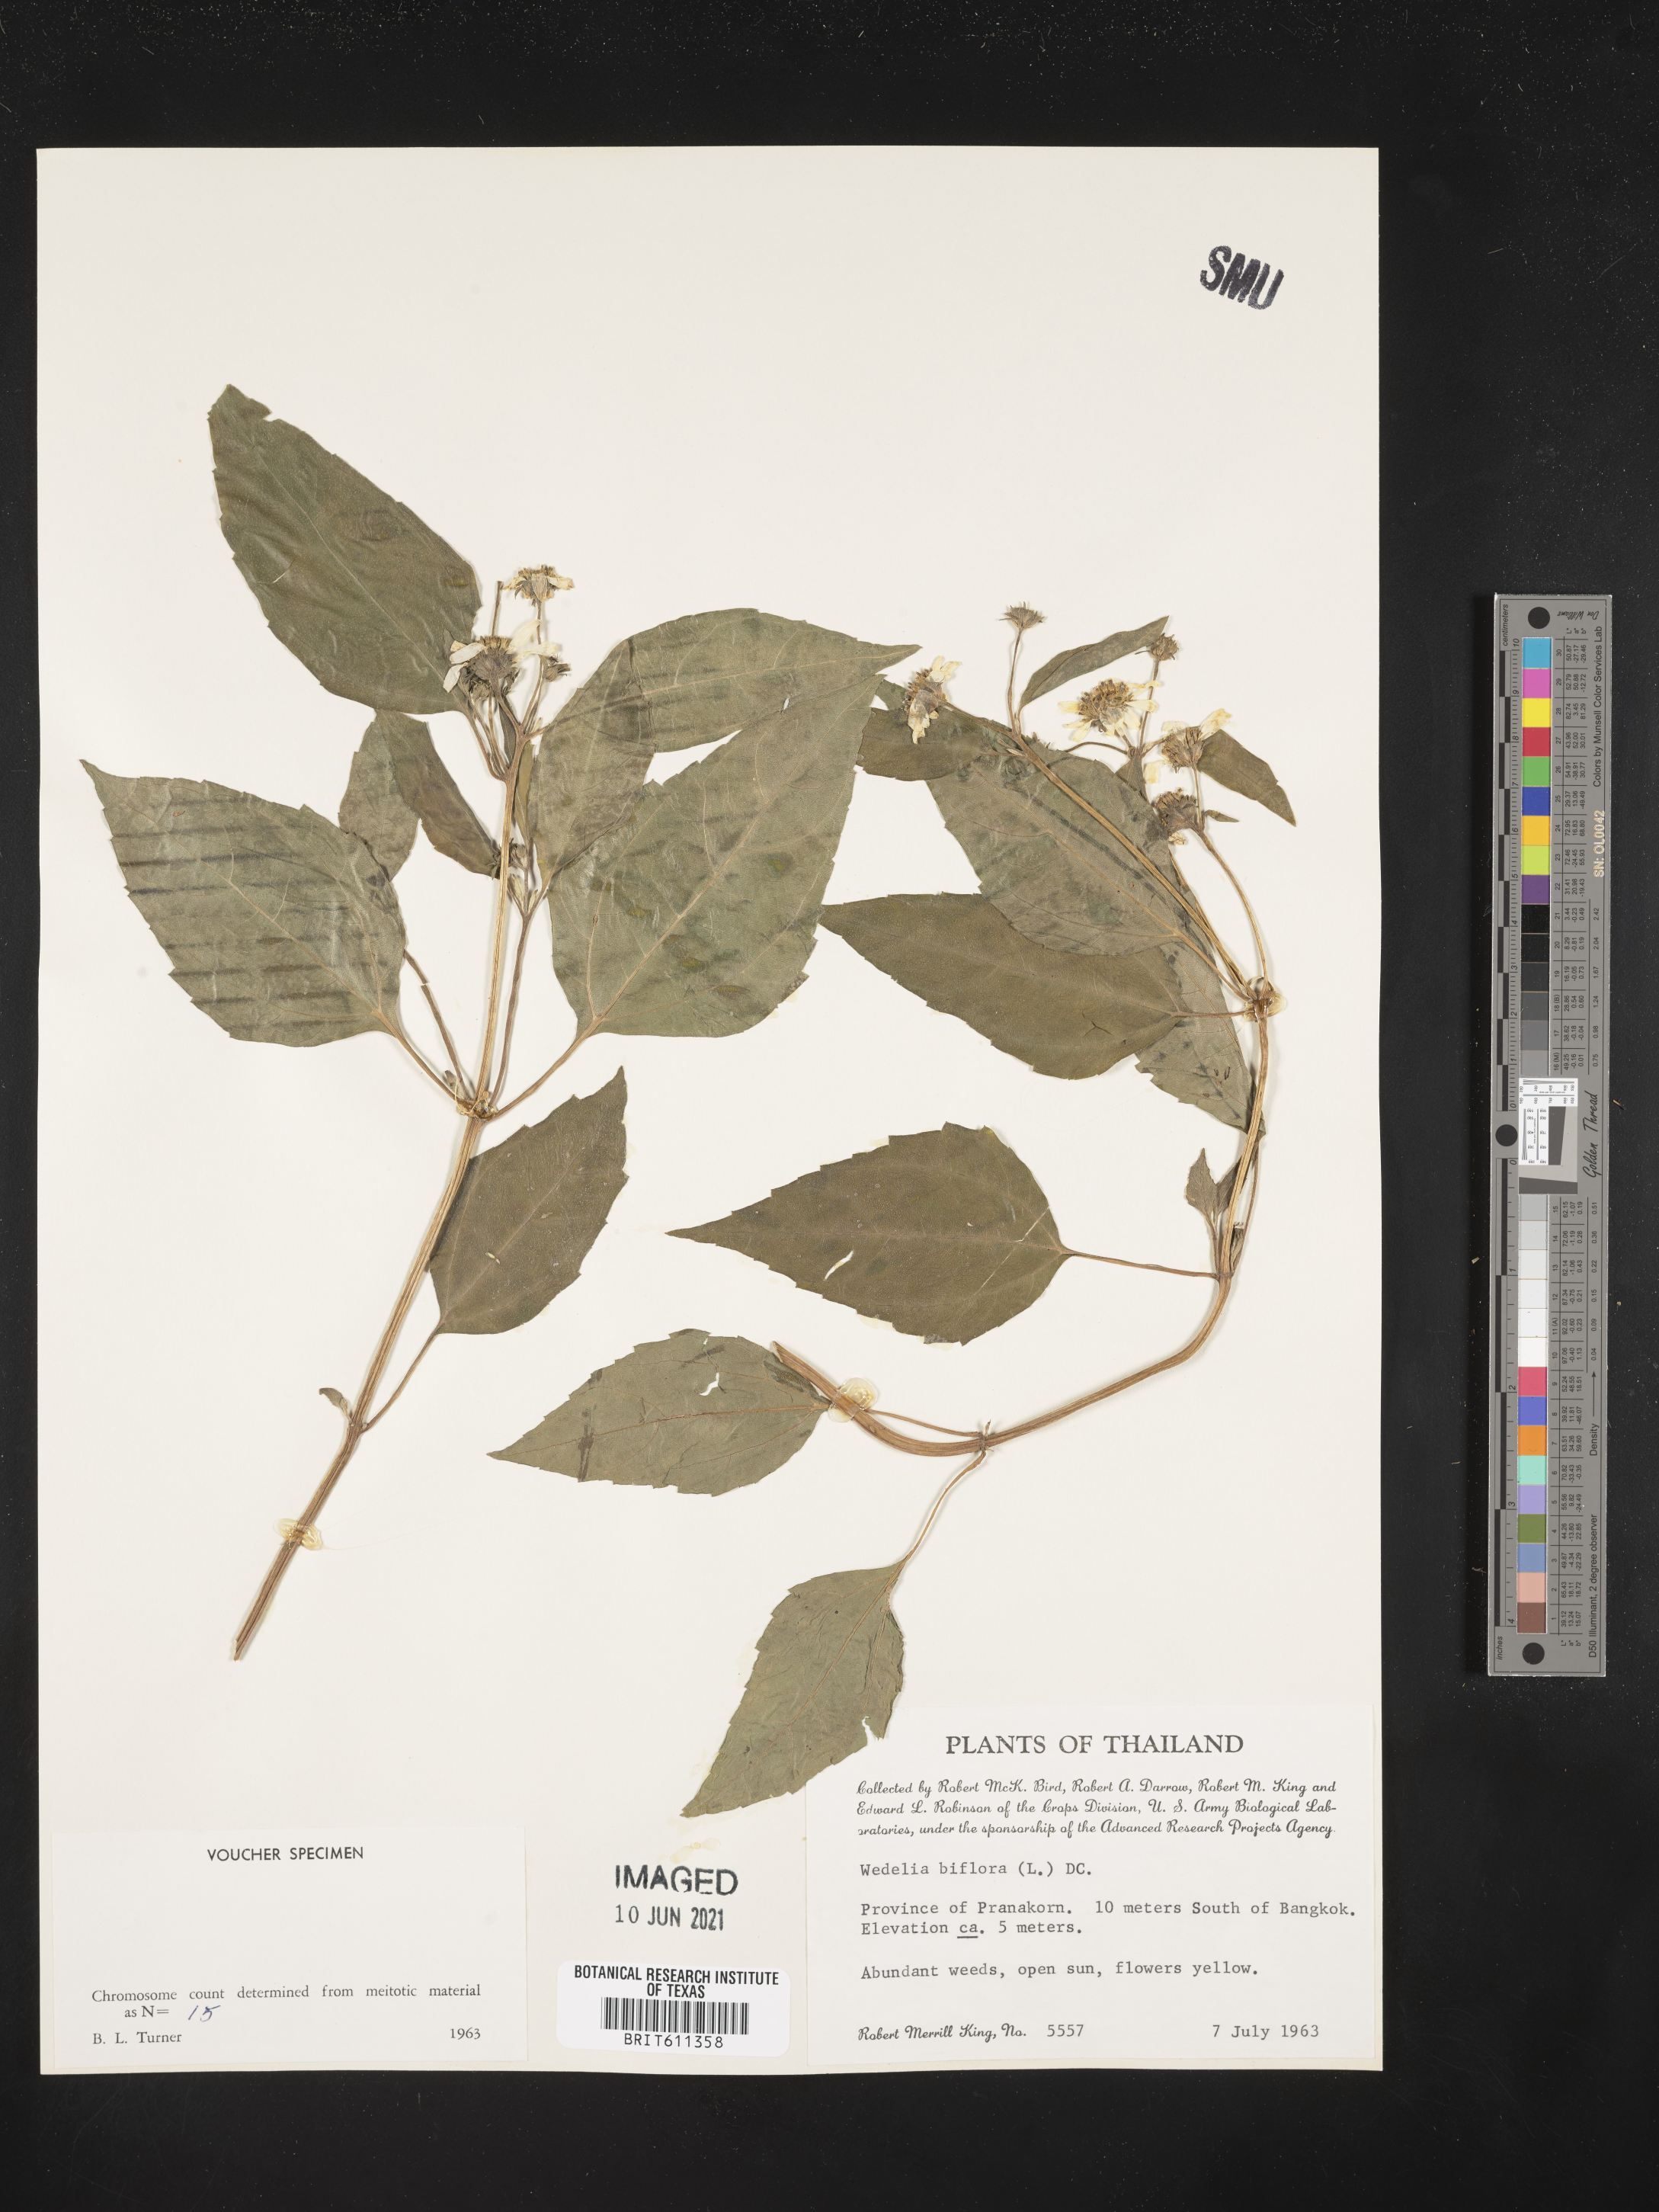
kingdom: Plantae
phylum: Tracheophyta
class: Magnoliopsida
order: Asterales
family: Asteraceae
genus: Wollastonia
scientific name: Wollastonia biflora
